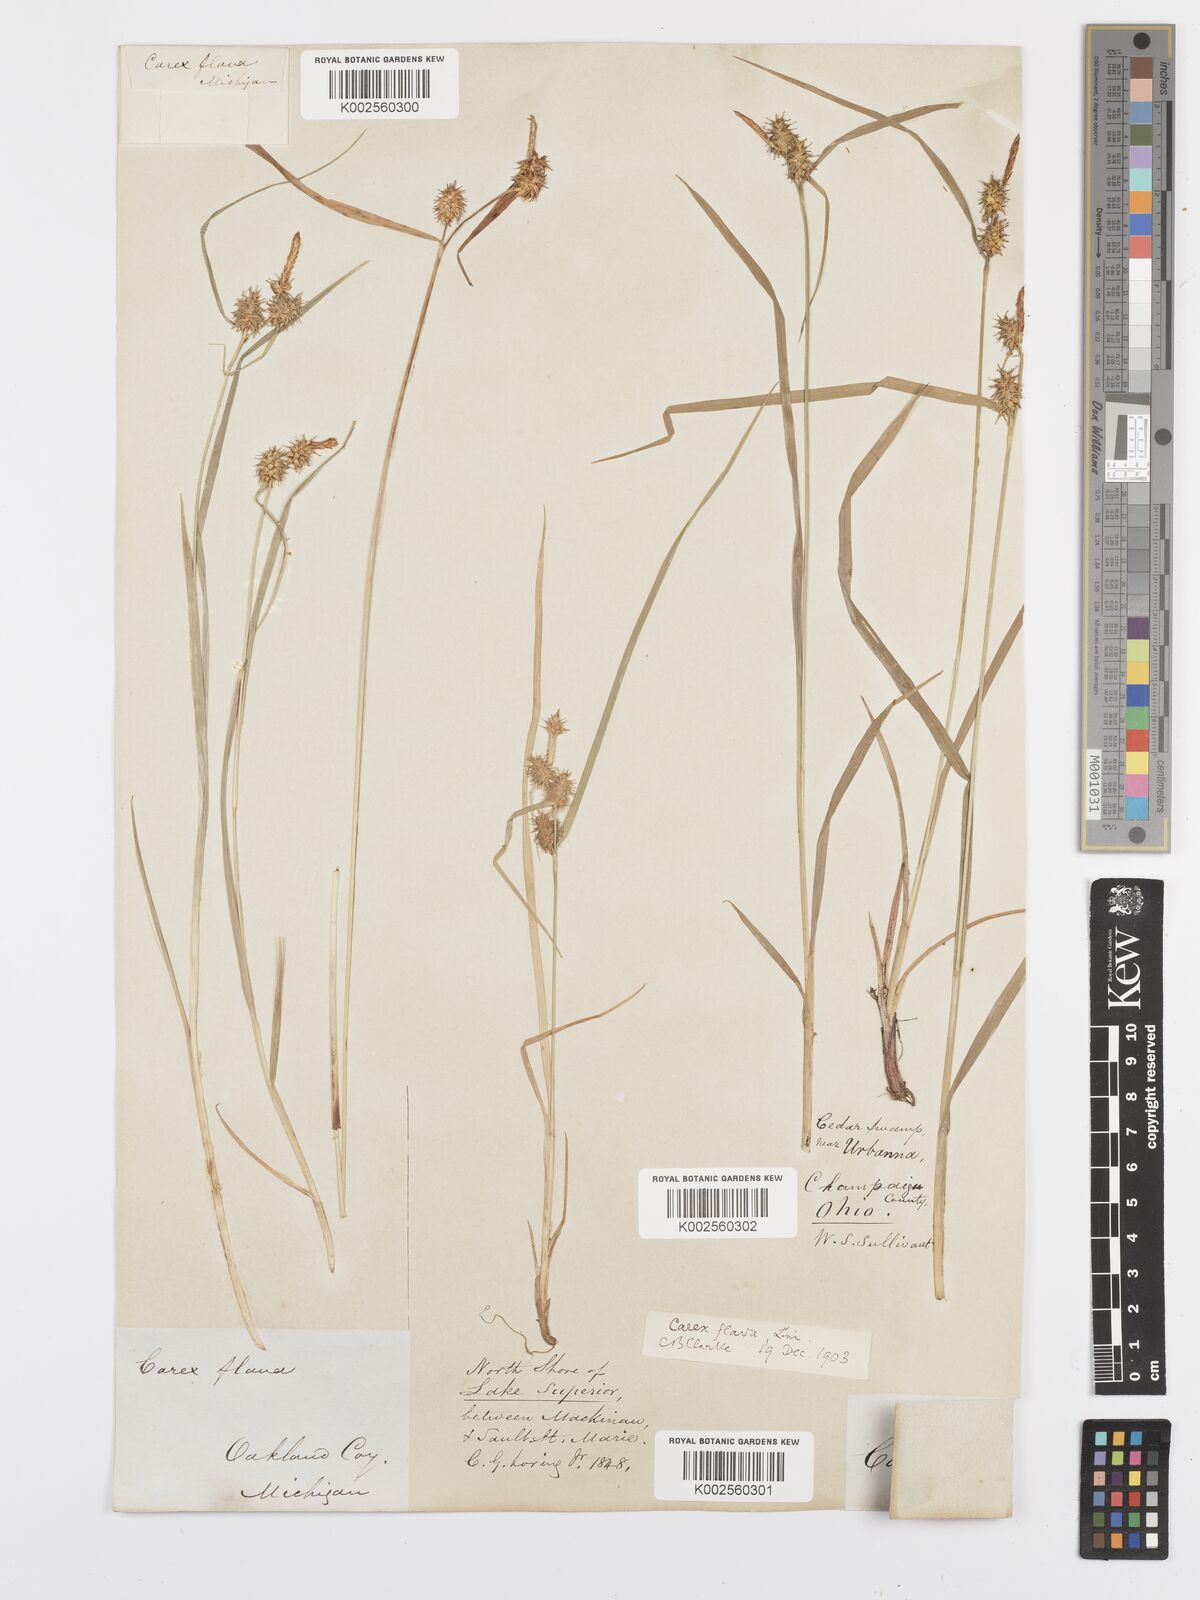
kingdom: Plantae
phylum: Tracheophyta
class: Liliopsida
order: Poales
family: Cyperaceae
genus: Carex
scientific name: Carex flava
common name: Large yellow-sedge
